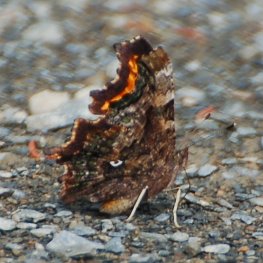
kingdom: Animalia
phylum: Arthropoda
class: Insecta
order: Lepidoptera
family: Nymphalidae
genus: Polygonia
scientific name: Polygonia faunus
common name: Green Comma
